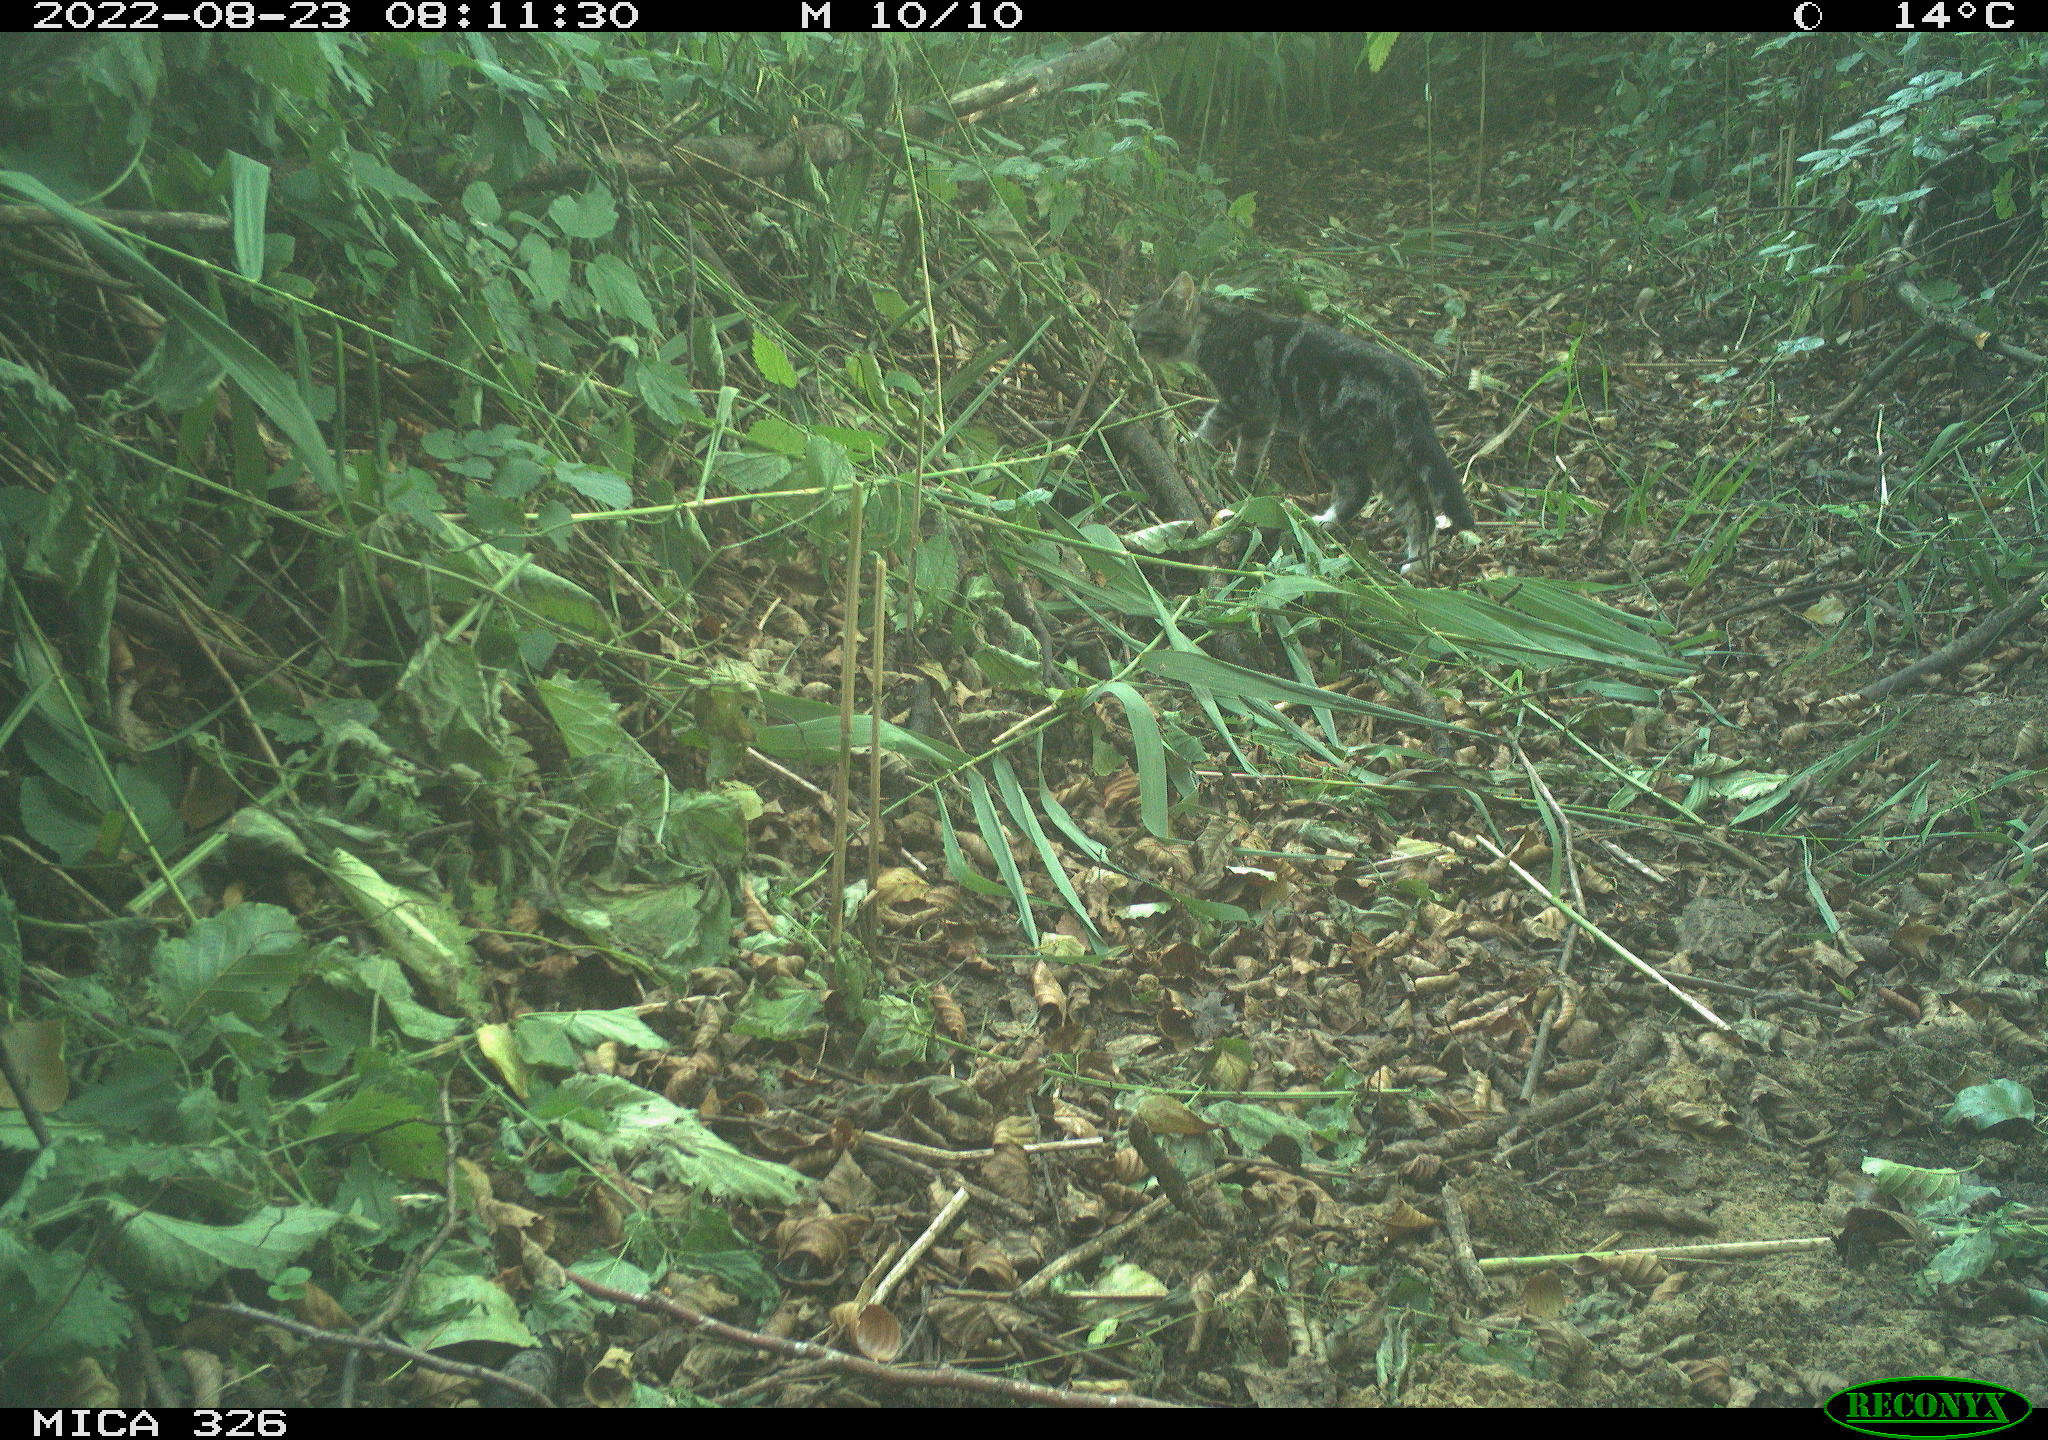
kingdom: Animalia
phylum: Chordata
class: Mammalia
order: Carnivora
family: Felidae
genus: Felis
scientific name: Felis catus
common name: Domestic cat
